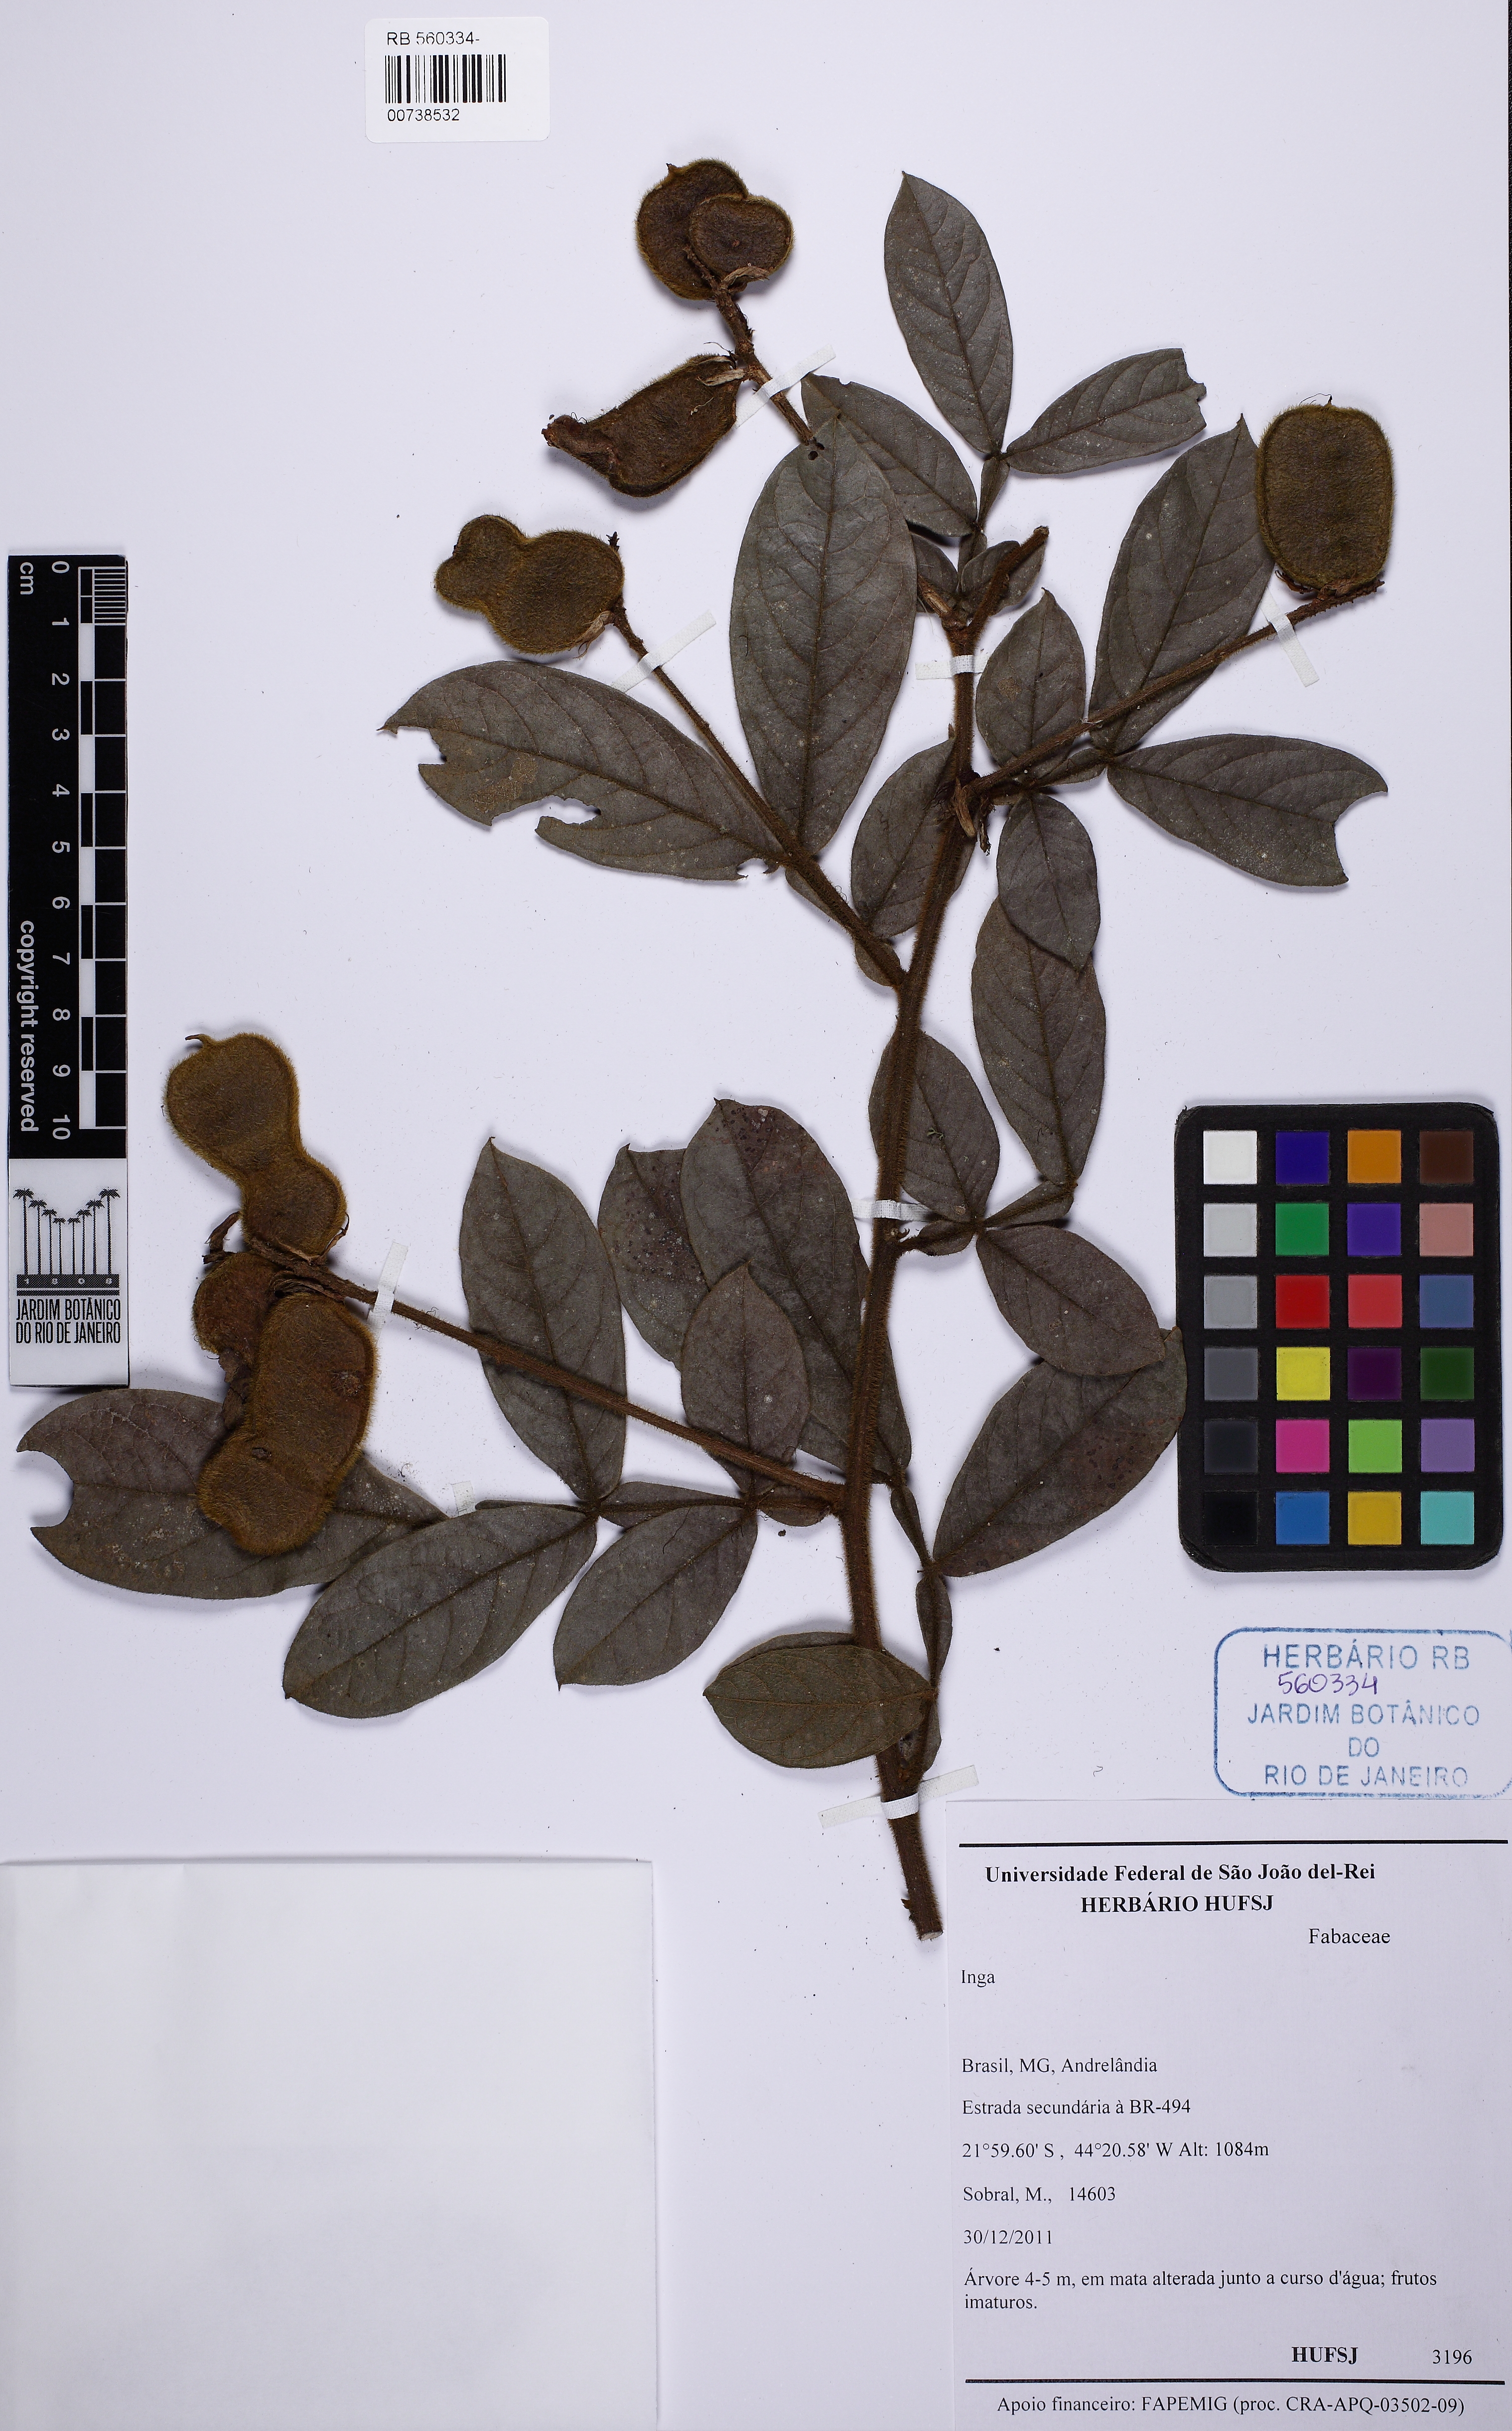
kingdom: Plantae
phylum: Tracheophyta
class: Magnoliopsida
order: Fabales
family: Fabaceae
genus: Inga
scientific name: Inga vulpina
